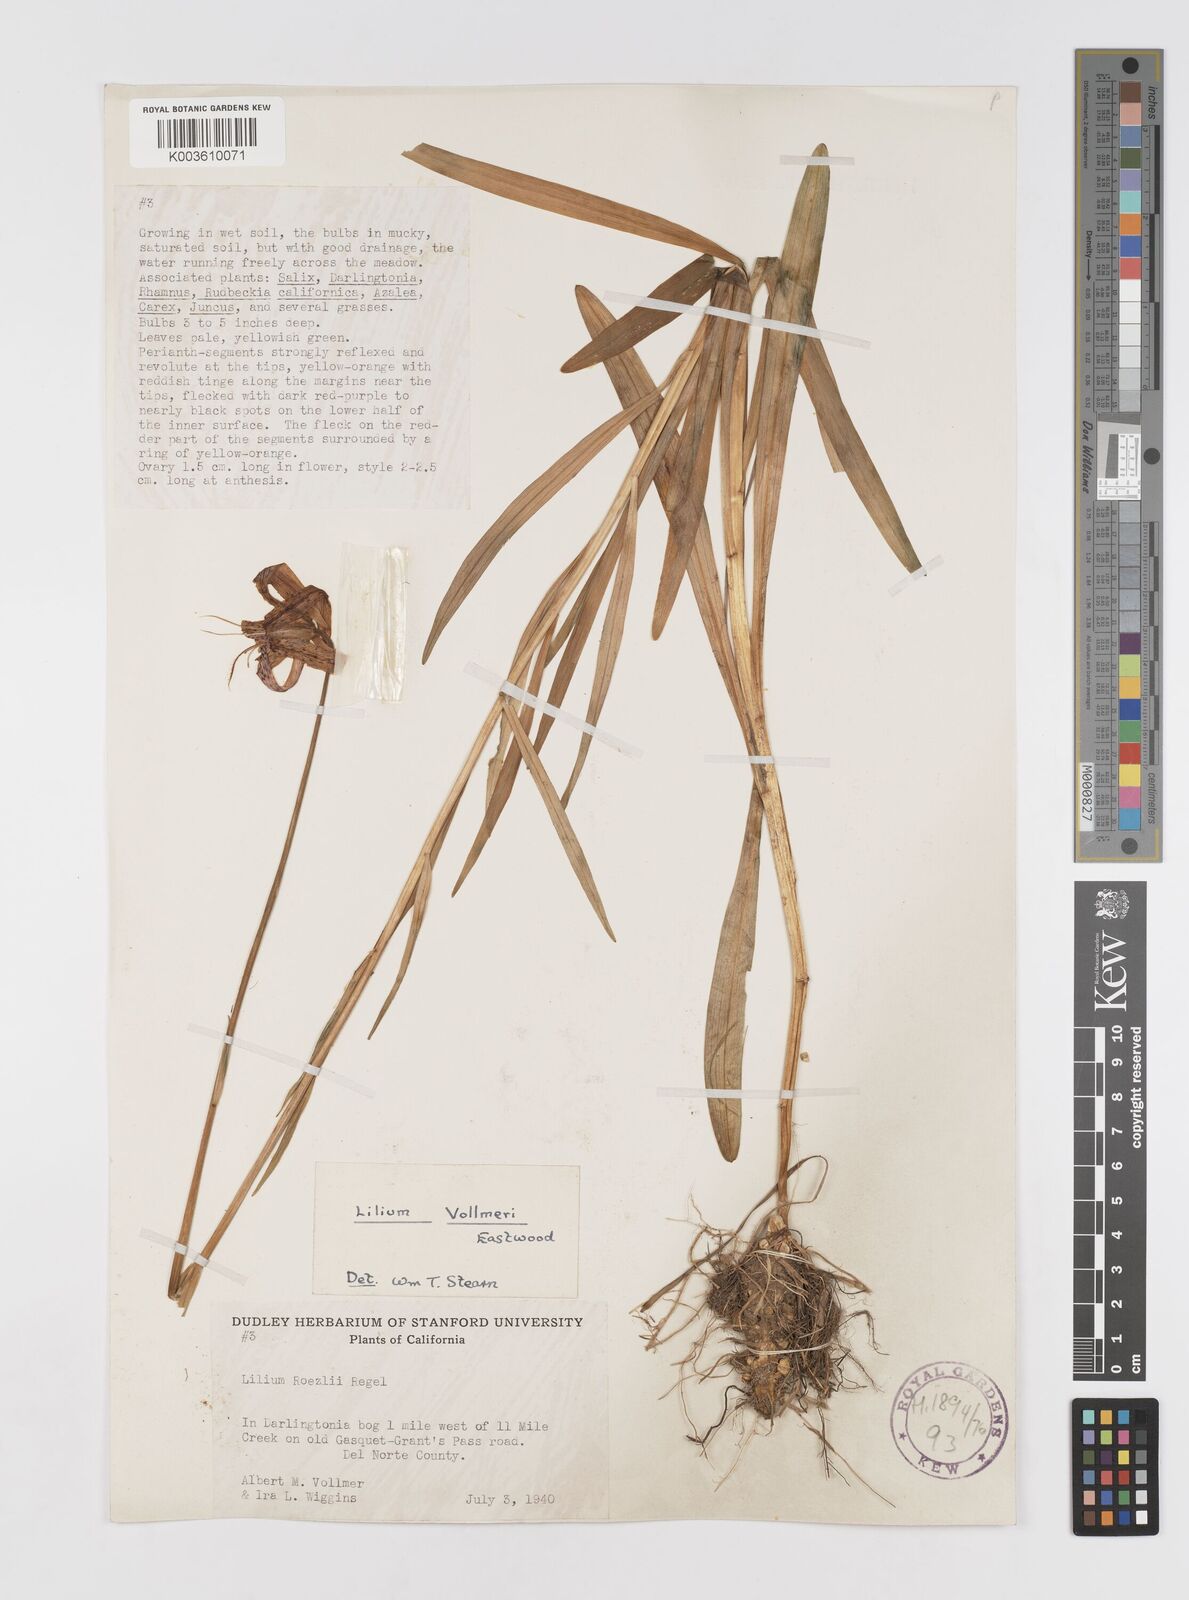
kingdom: Plantae
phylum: Tracheophyta
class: Liliopsida
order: Liliales
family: Liliaceae
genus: Lilium
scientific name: Lilium pardalinum
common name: Panther lily
